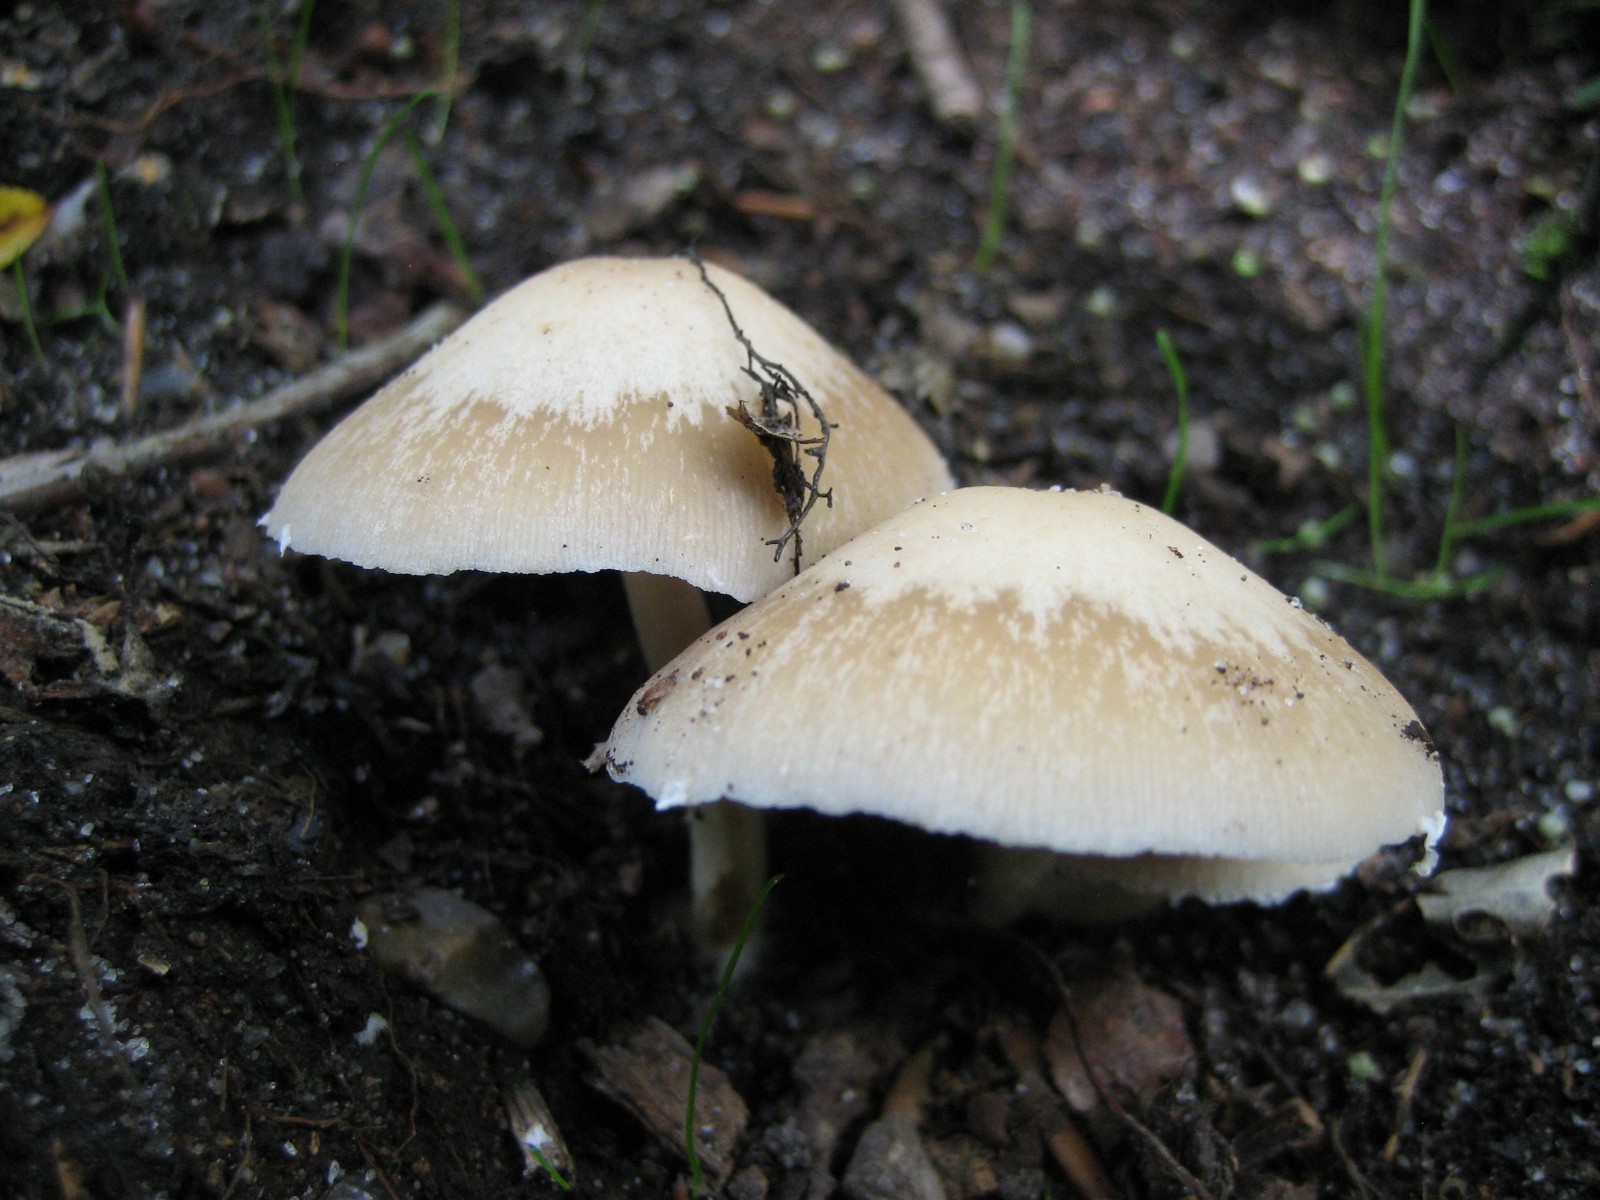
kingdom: Fungi
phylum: Basidiomycota
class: Agaricomycetes
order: Agaricales
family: Psathyrellaceae
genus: Candolleomyces
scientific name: Candolleomyces candolleanus
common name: Candolles mørkhat
